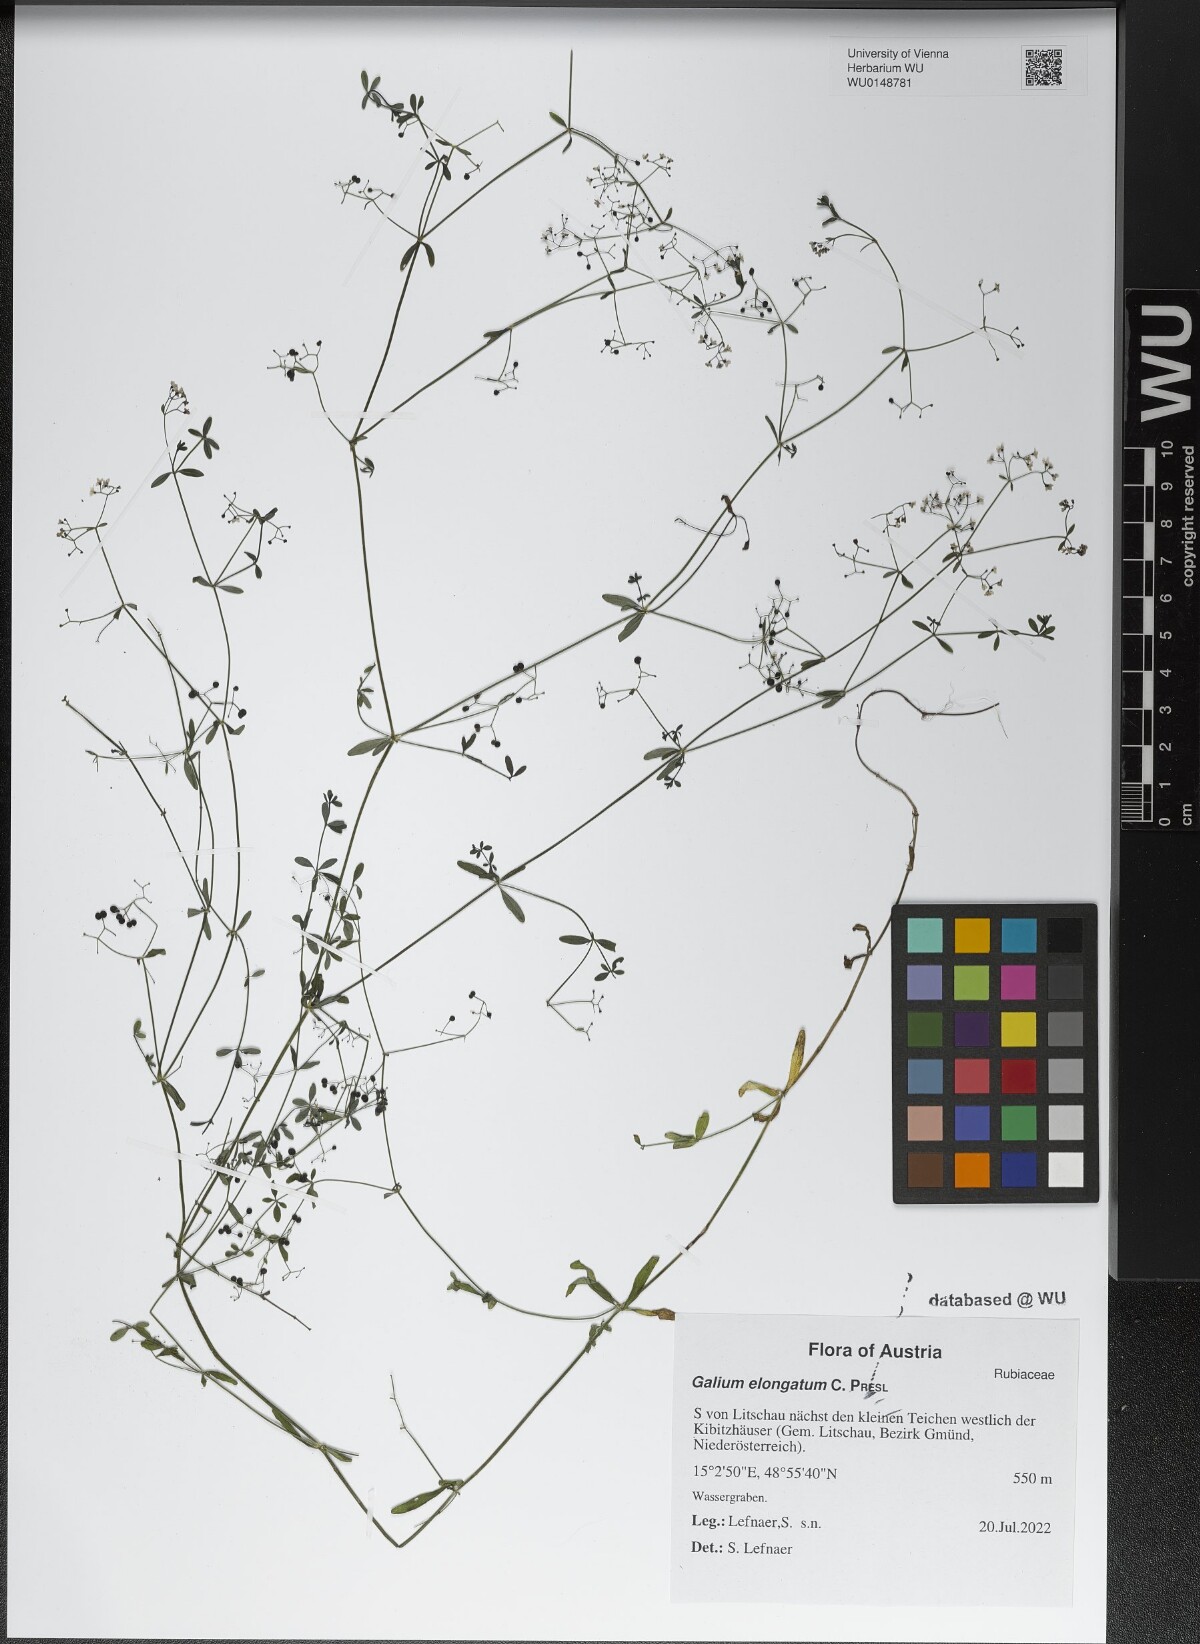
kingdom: Plantae
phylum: Tracheophyta
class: Magnoliopsida
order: Gentianales
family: Rubiaceae
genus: Galium
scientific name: Galium elongatum
